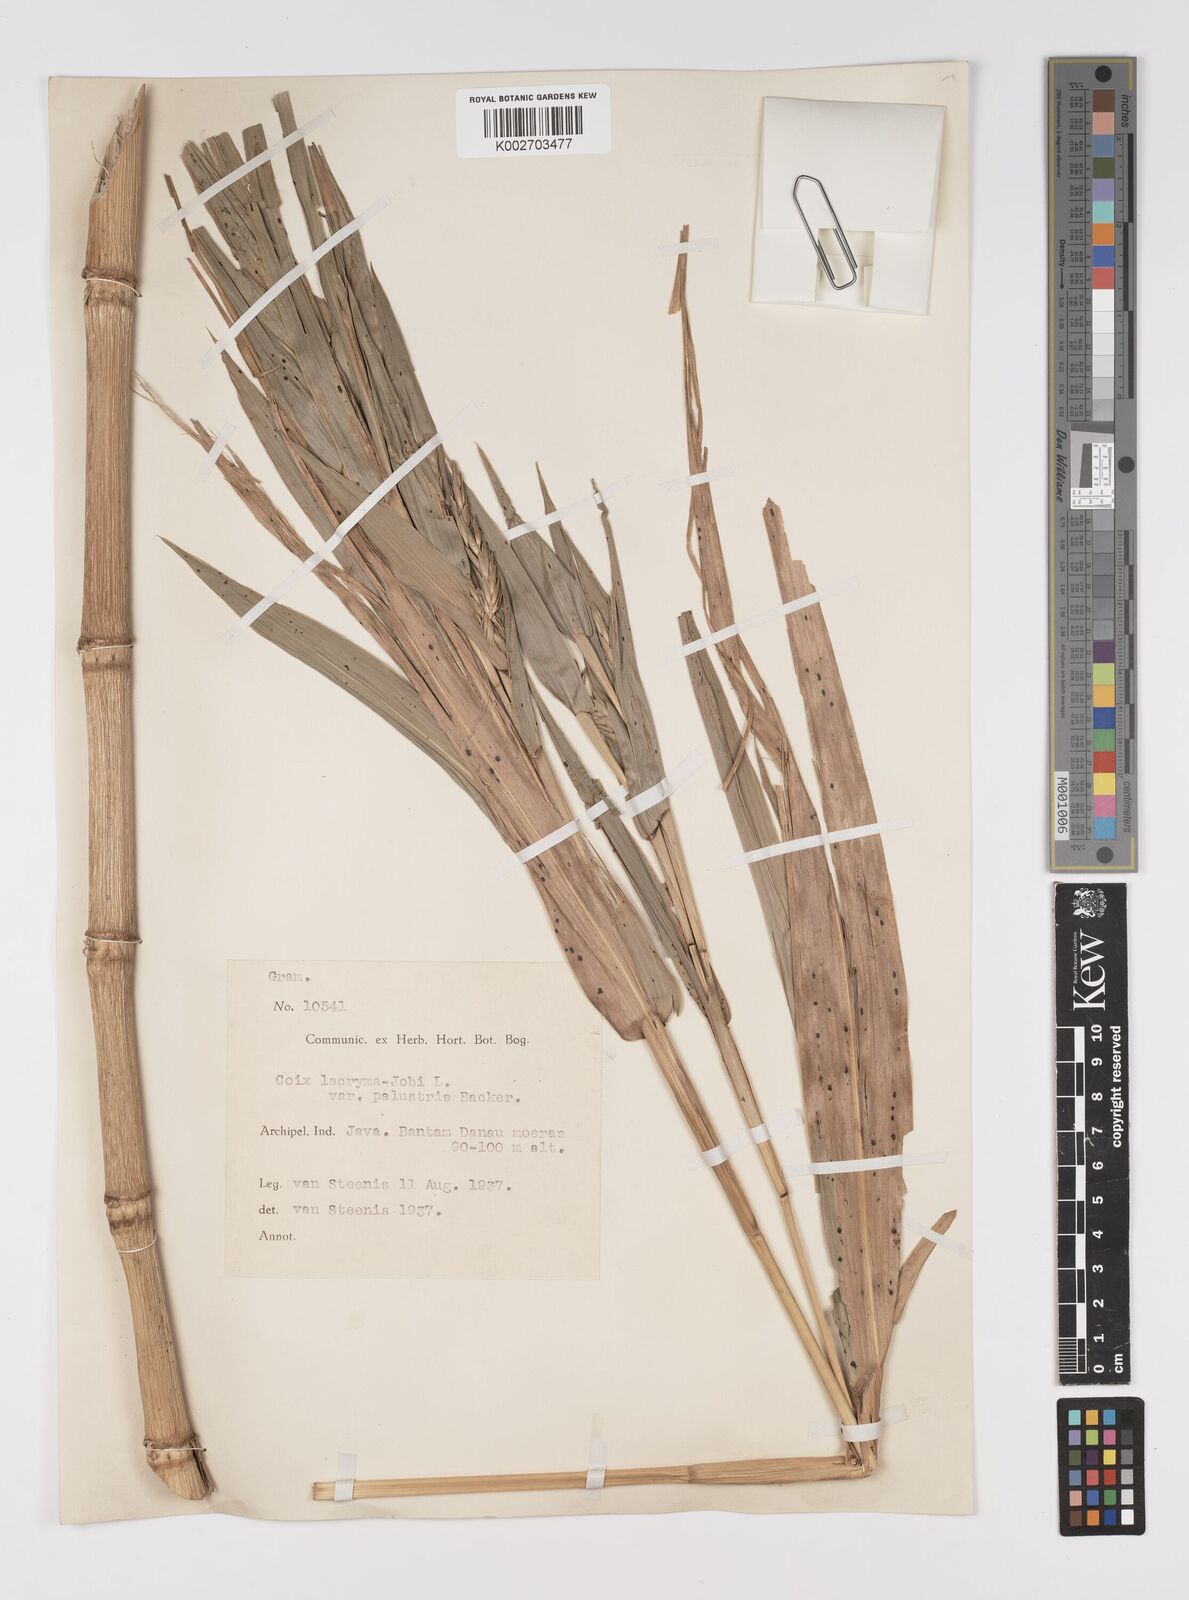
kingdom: Plantae
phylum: Tracheophyta
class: Liliopsida
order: Poales
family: Poaceae
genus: Coix
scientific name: Coix lacryma-jobi
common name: Job's tears
